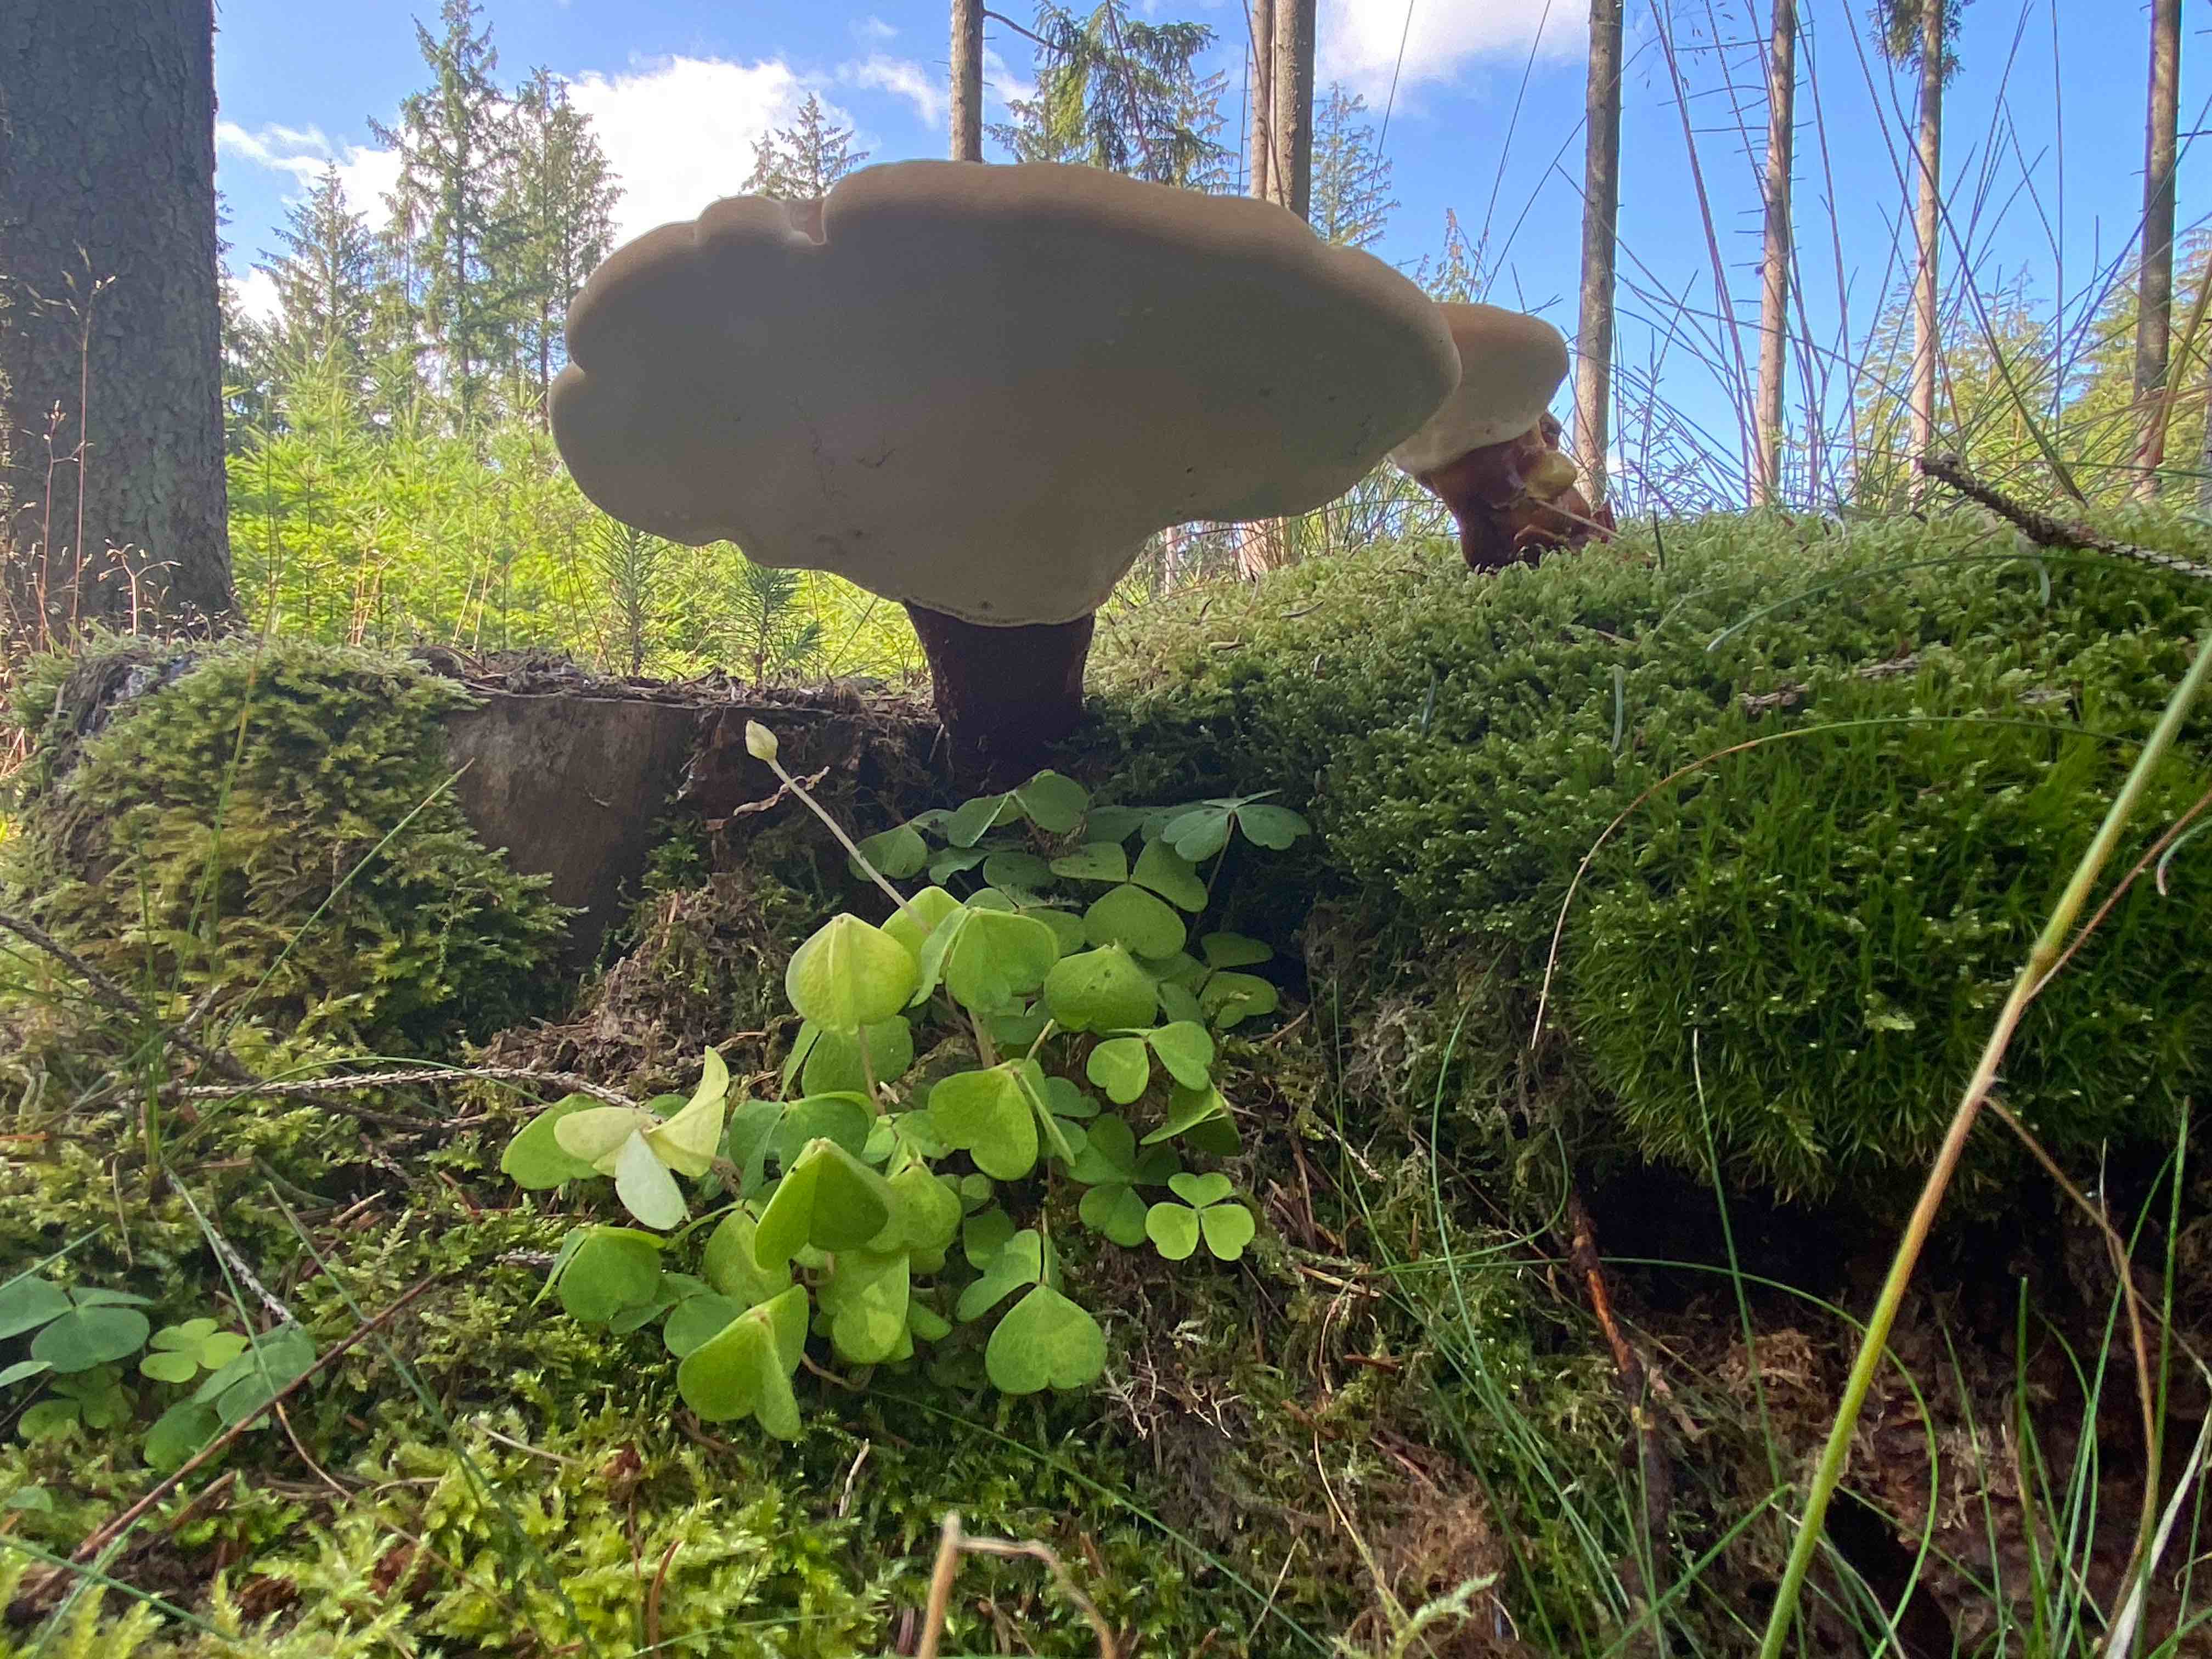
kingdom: Fungi
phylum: Basidiomycota
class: Agaricomycetes
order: Polyporales
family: Polyporaceae
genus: Ganoderma
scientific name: Ganoderma lucidum
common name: skinnende lakporesvamp
